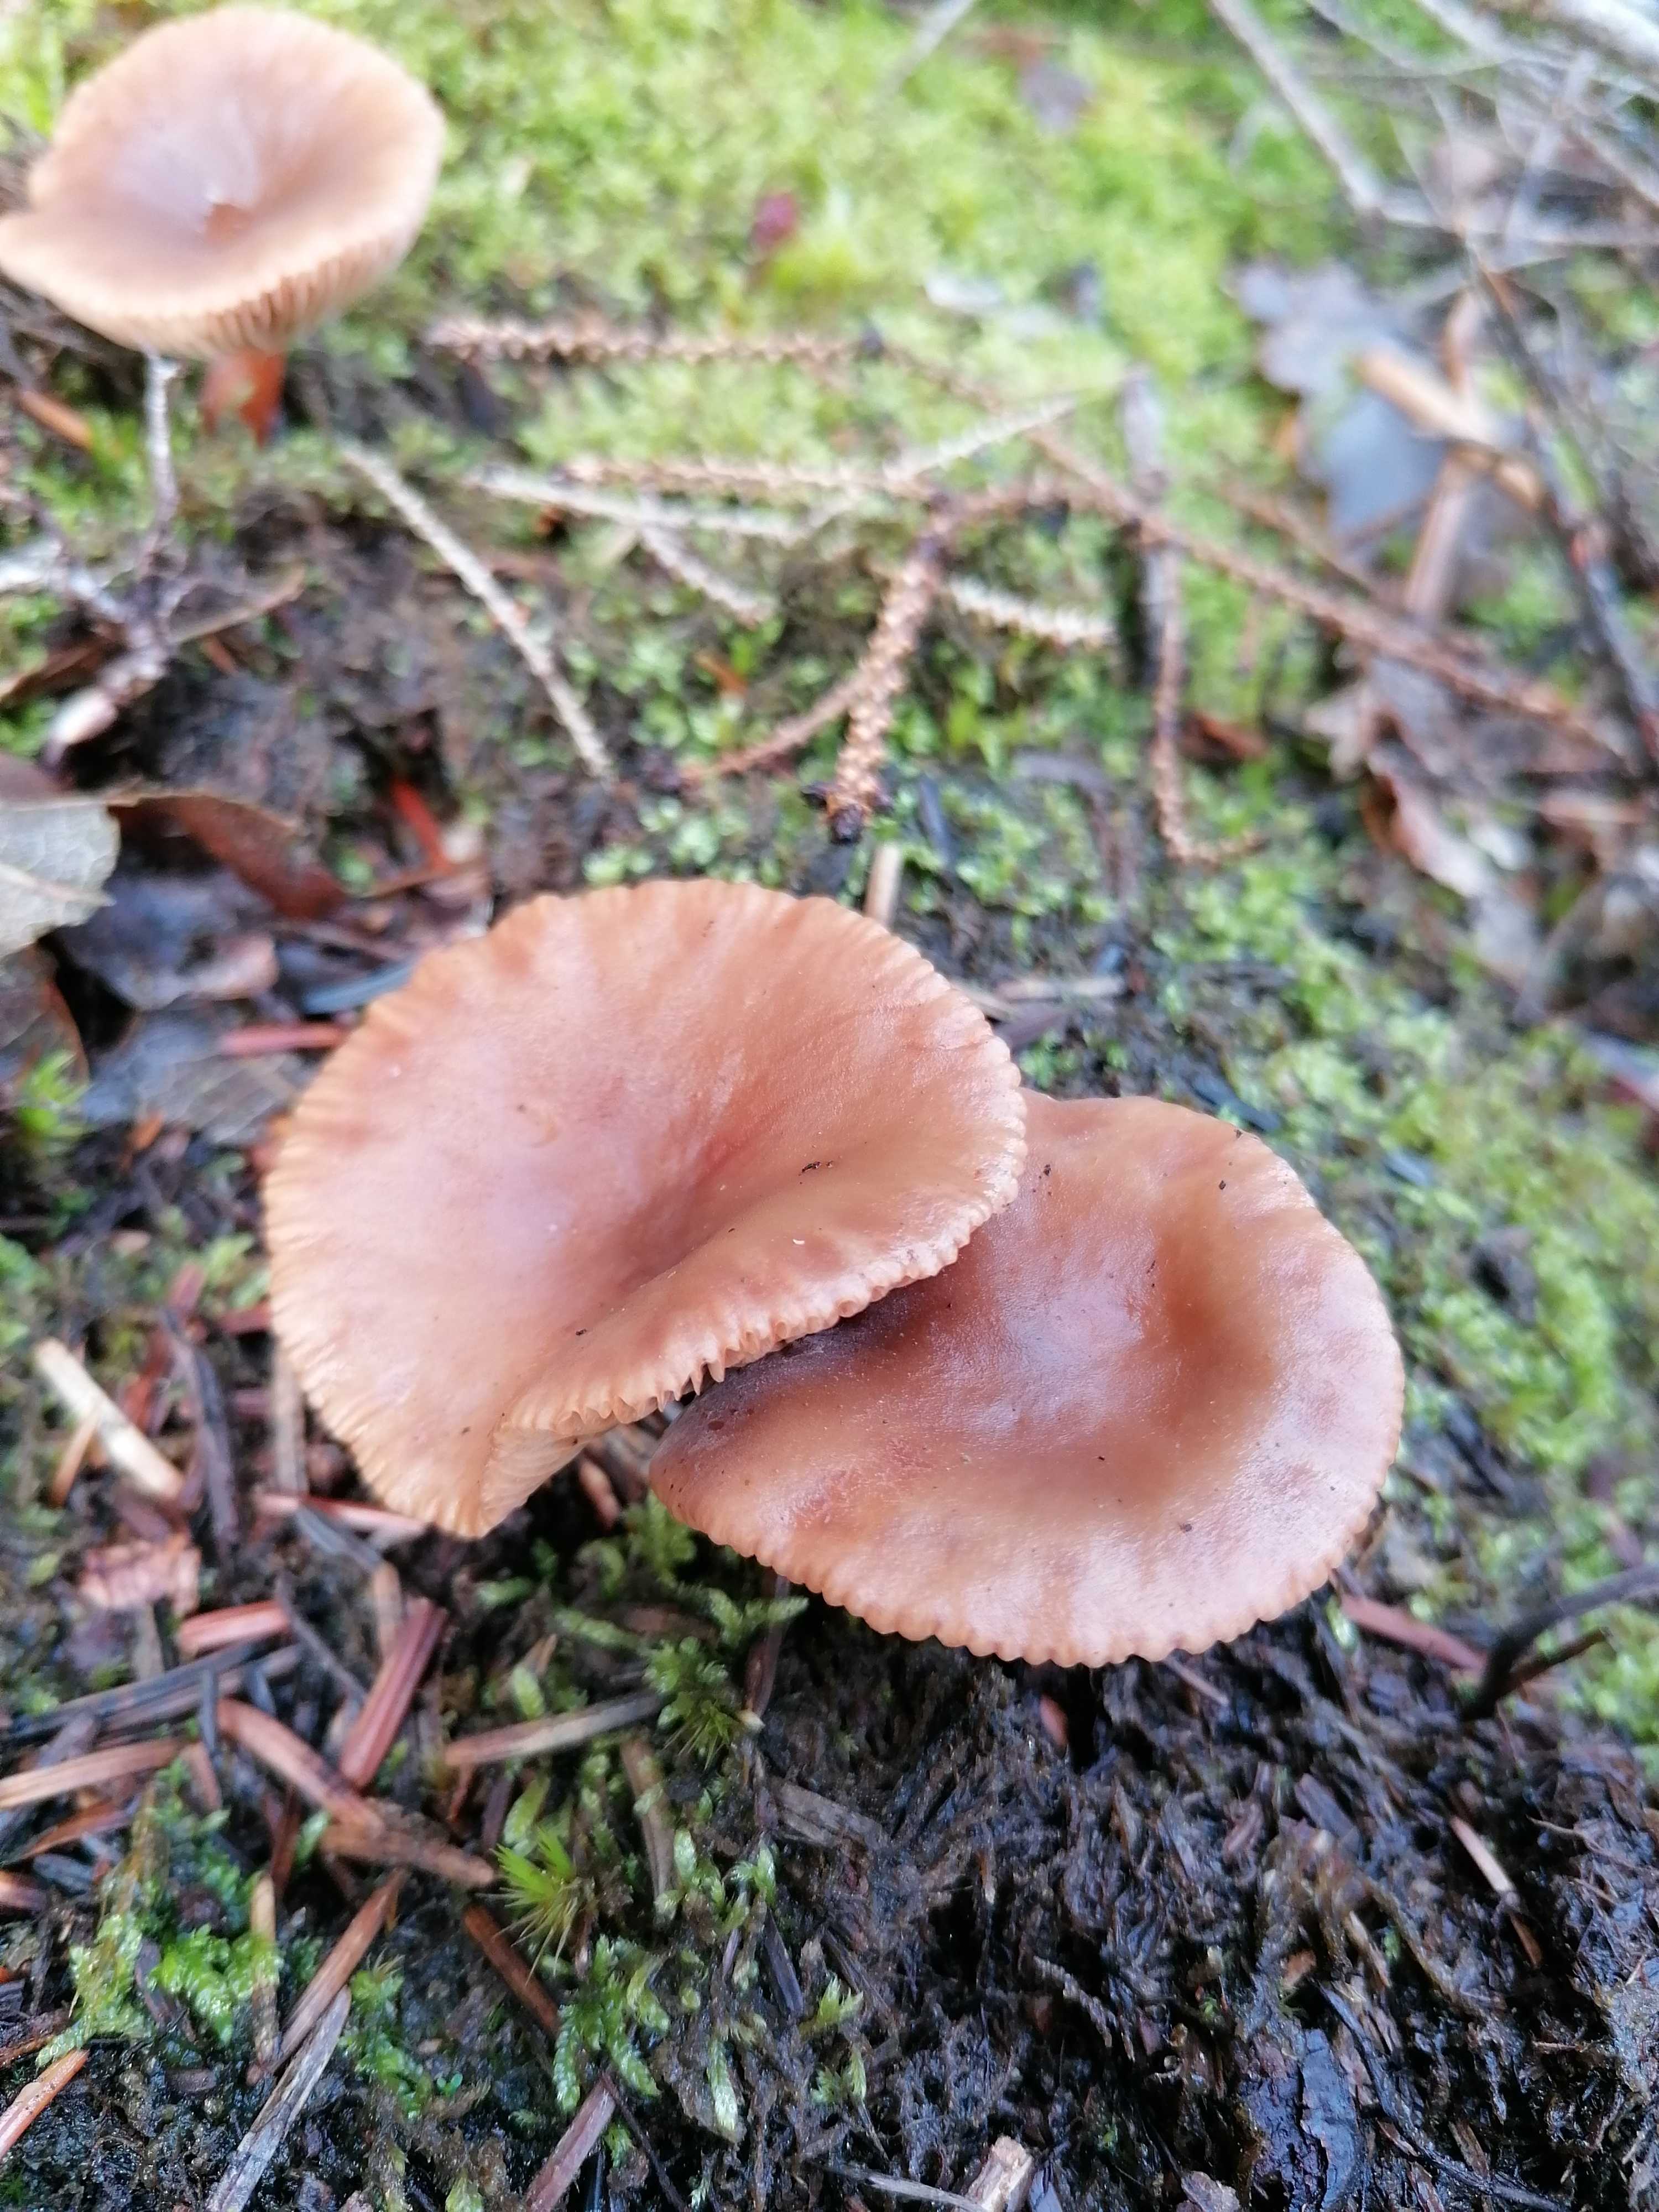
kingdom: Fungi
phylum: Basidiomycota
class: Agaricomycetes
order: Russulales
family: Russulaceae
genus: Lactarius
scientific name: Lactarius hepaticus
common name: leverbrun mælkehat
